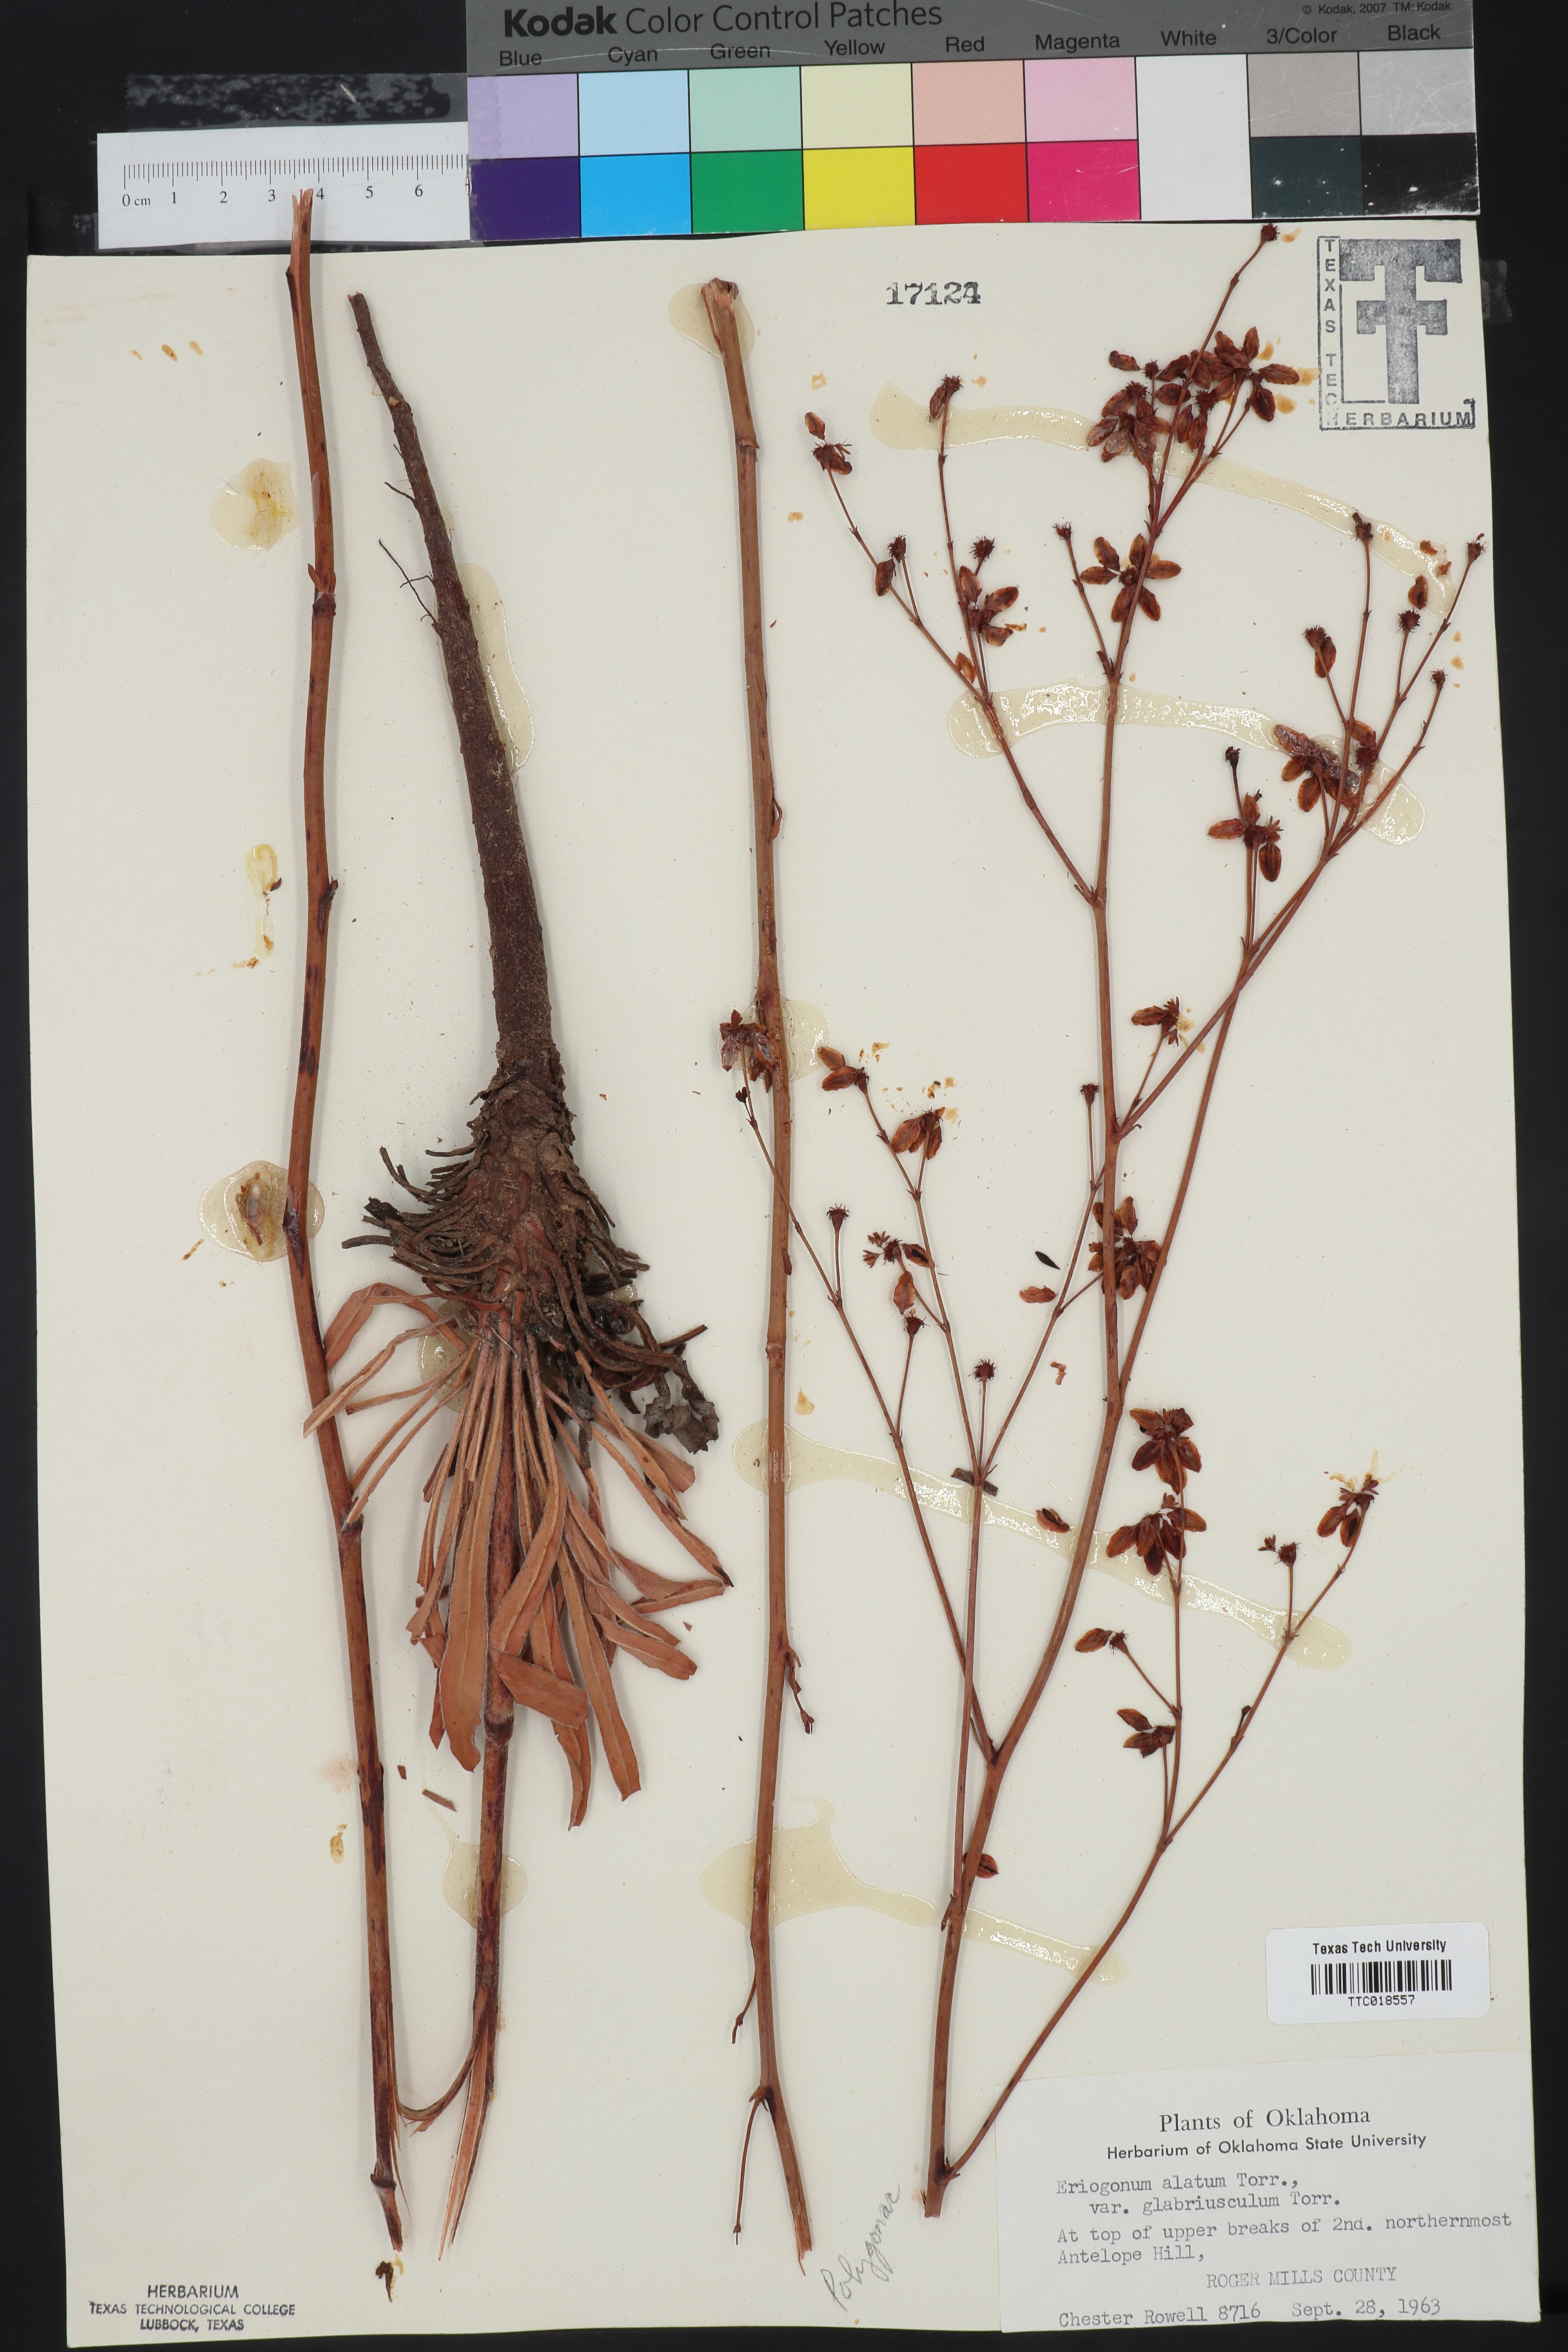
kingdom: Plantae
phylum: Tracheophyta
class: Magnoliopsida
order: Caryophyllales
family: Polygonaceae
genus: Eriogonum
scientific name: Eriogonum alatum
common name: Winged eriogonum
